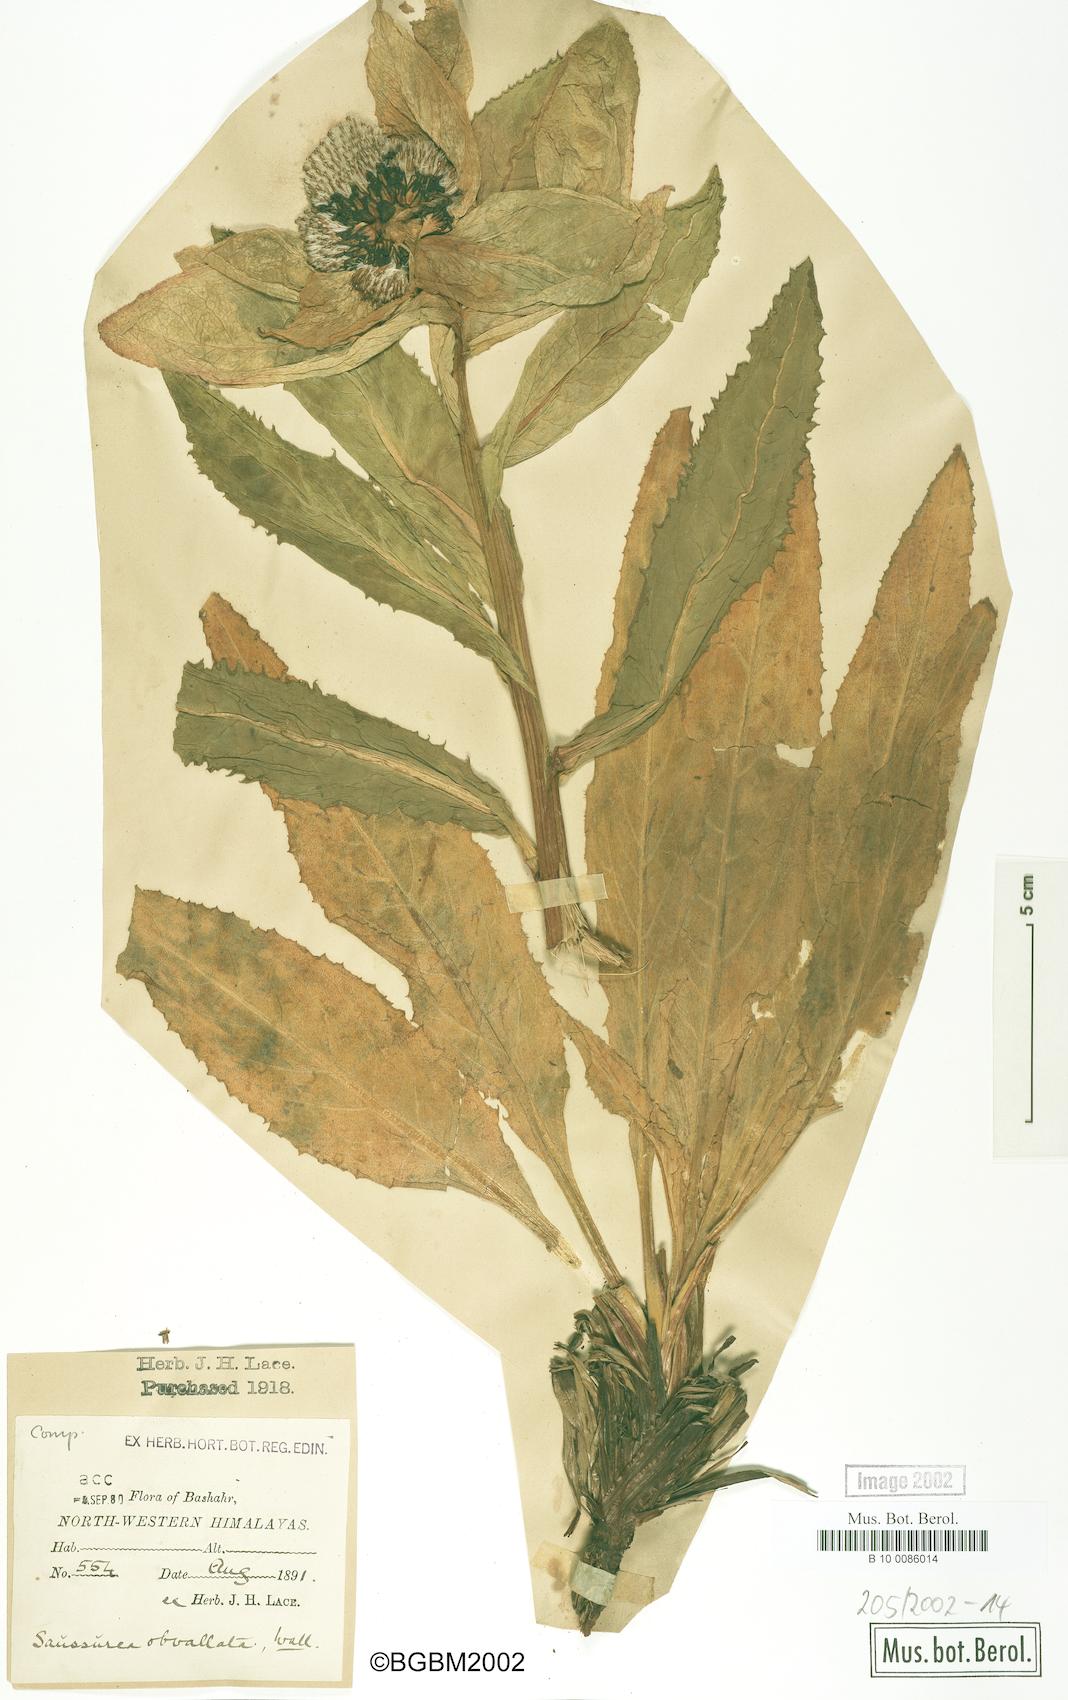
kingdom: Plantae
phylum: Tracheophyta
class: Magnoliopsida
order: Asterales
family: Asteraceae
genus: Saussurea
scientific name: Saussurea obvallata
